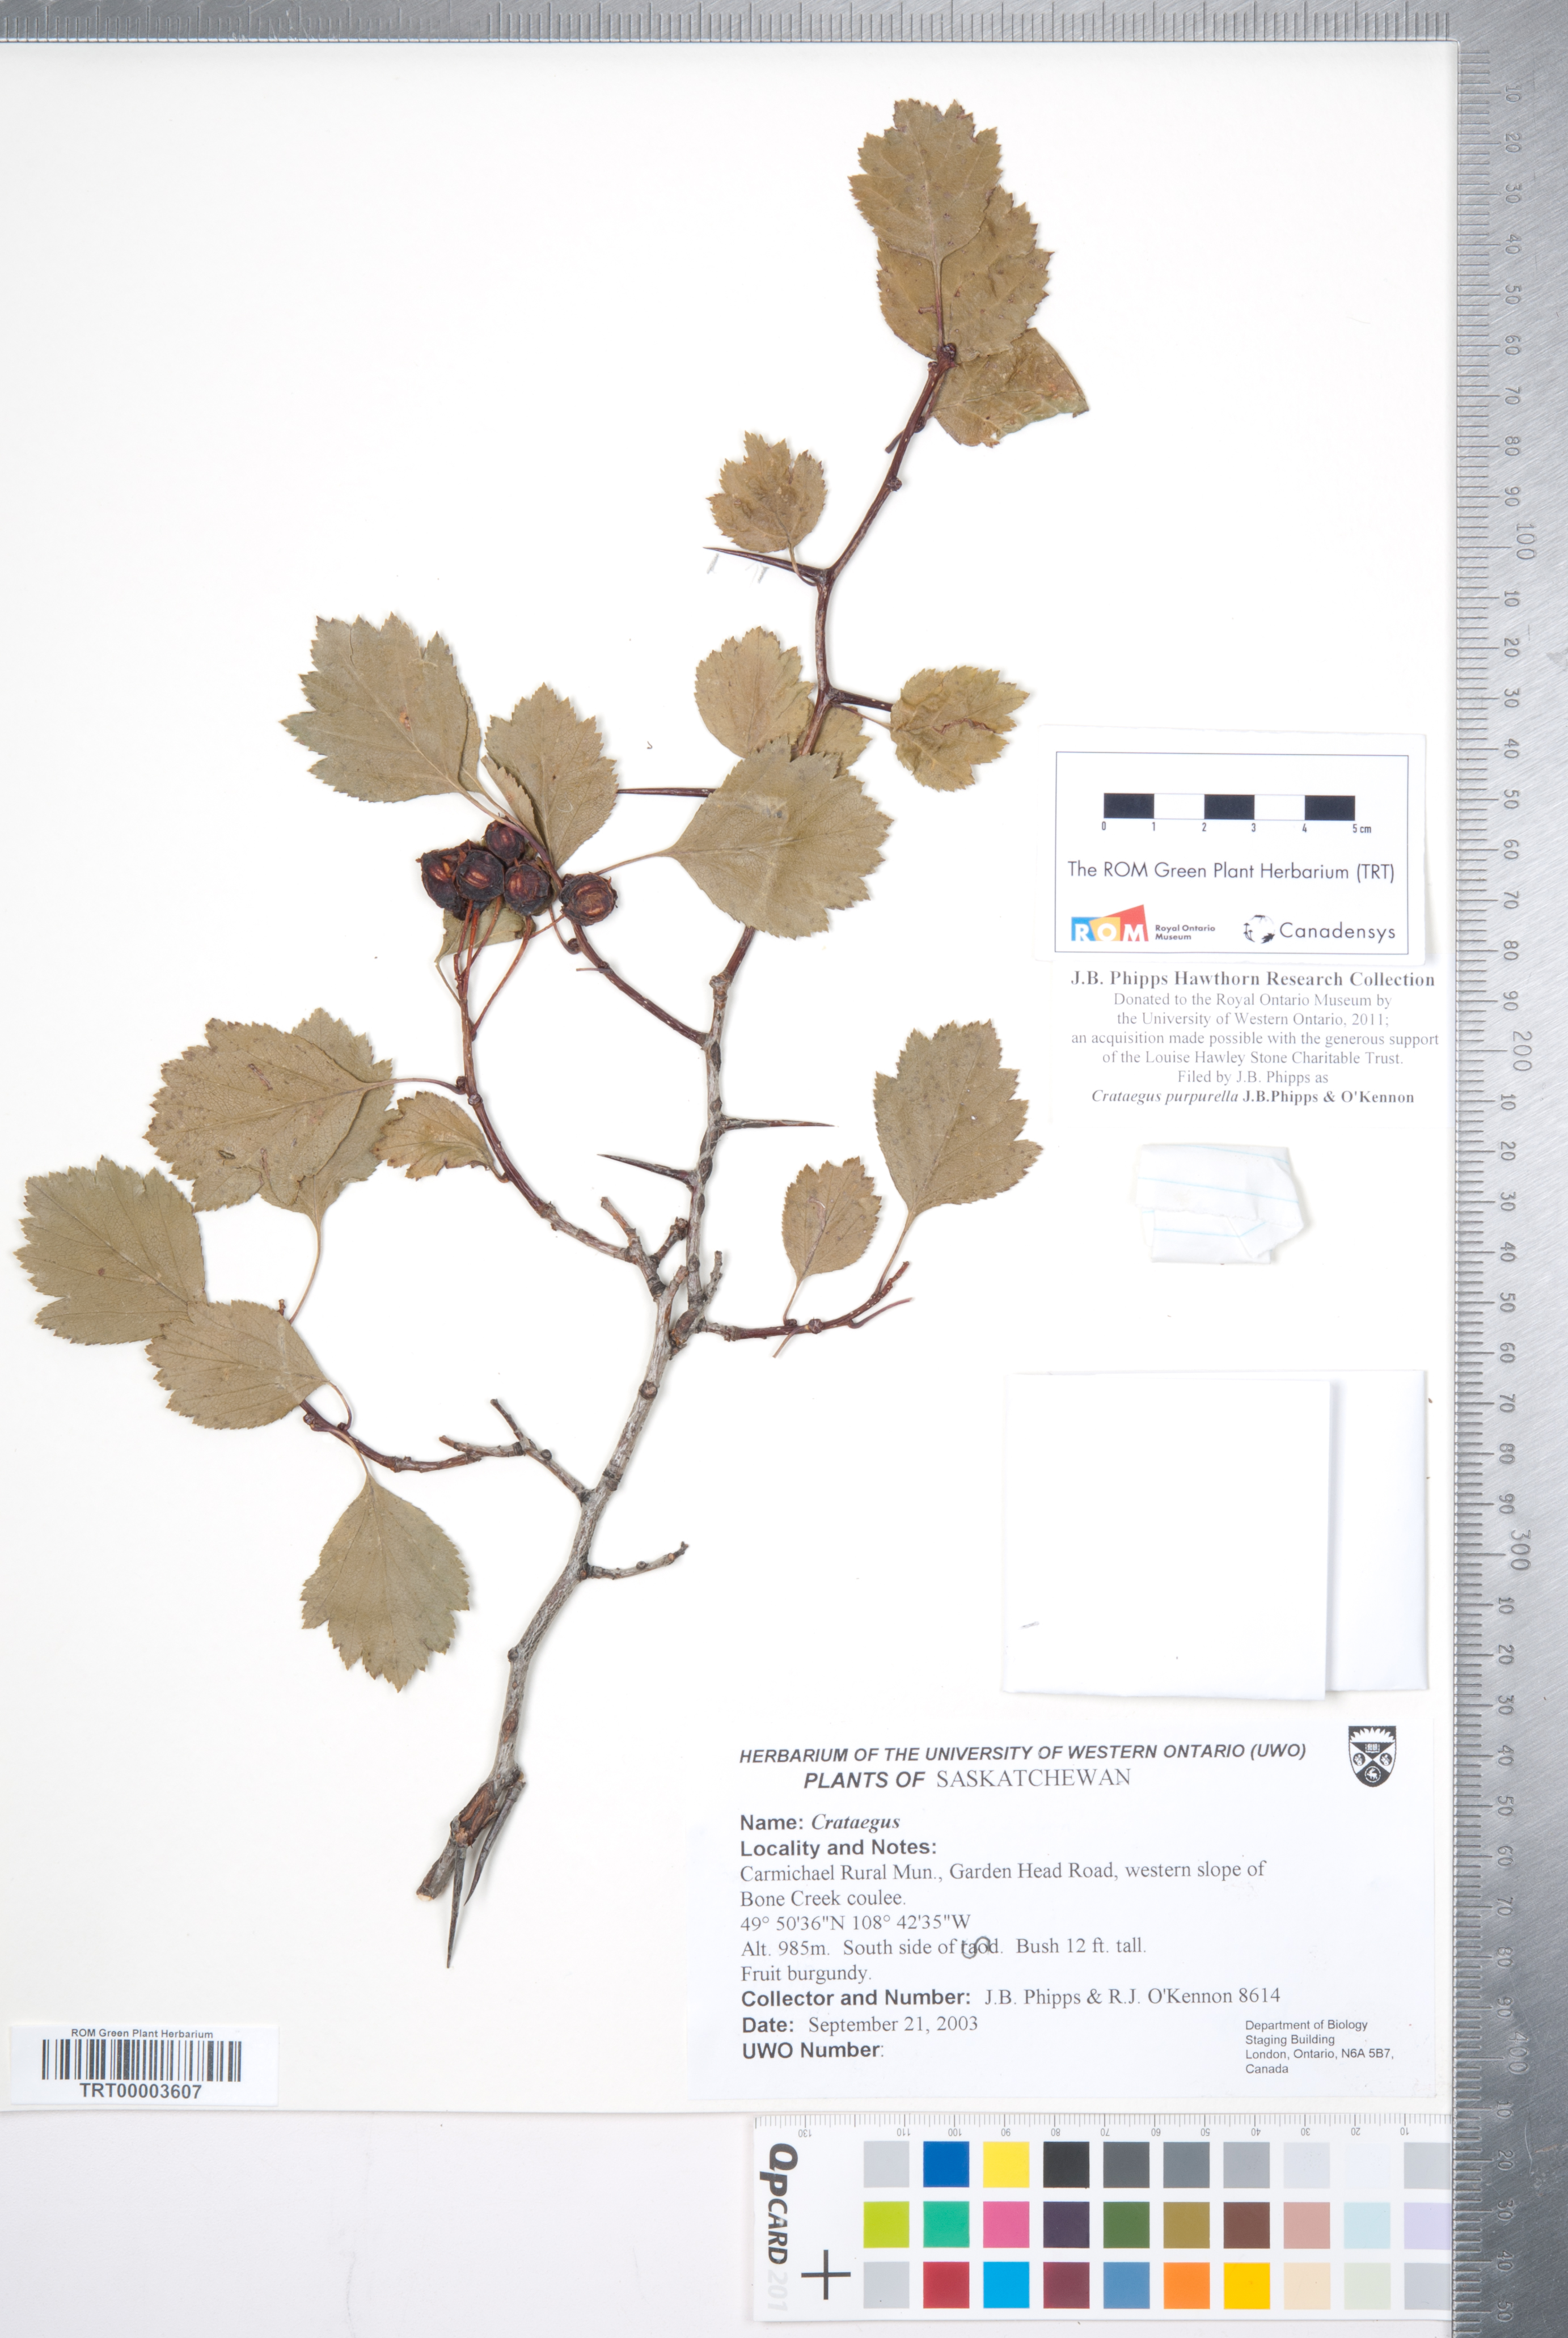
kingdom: Plantae
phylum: Tracheophyta
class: Magnoliopsida
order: Rosales
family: Rosaceae
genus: Crataegus
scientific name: Crataegus purpurella
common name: Loch lomond hawthorn
